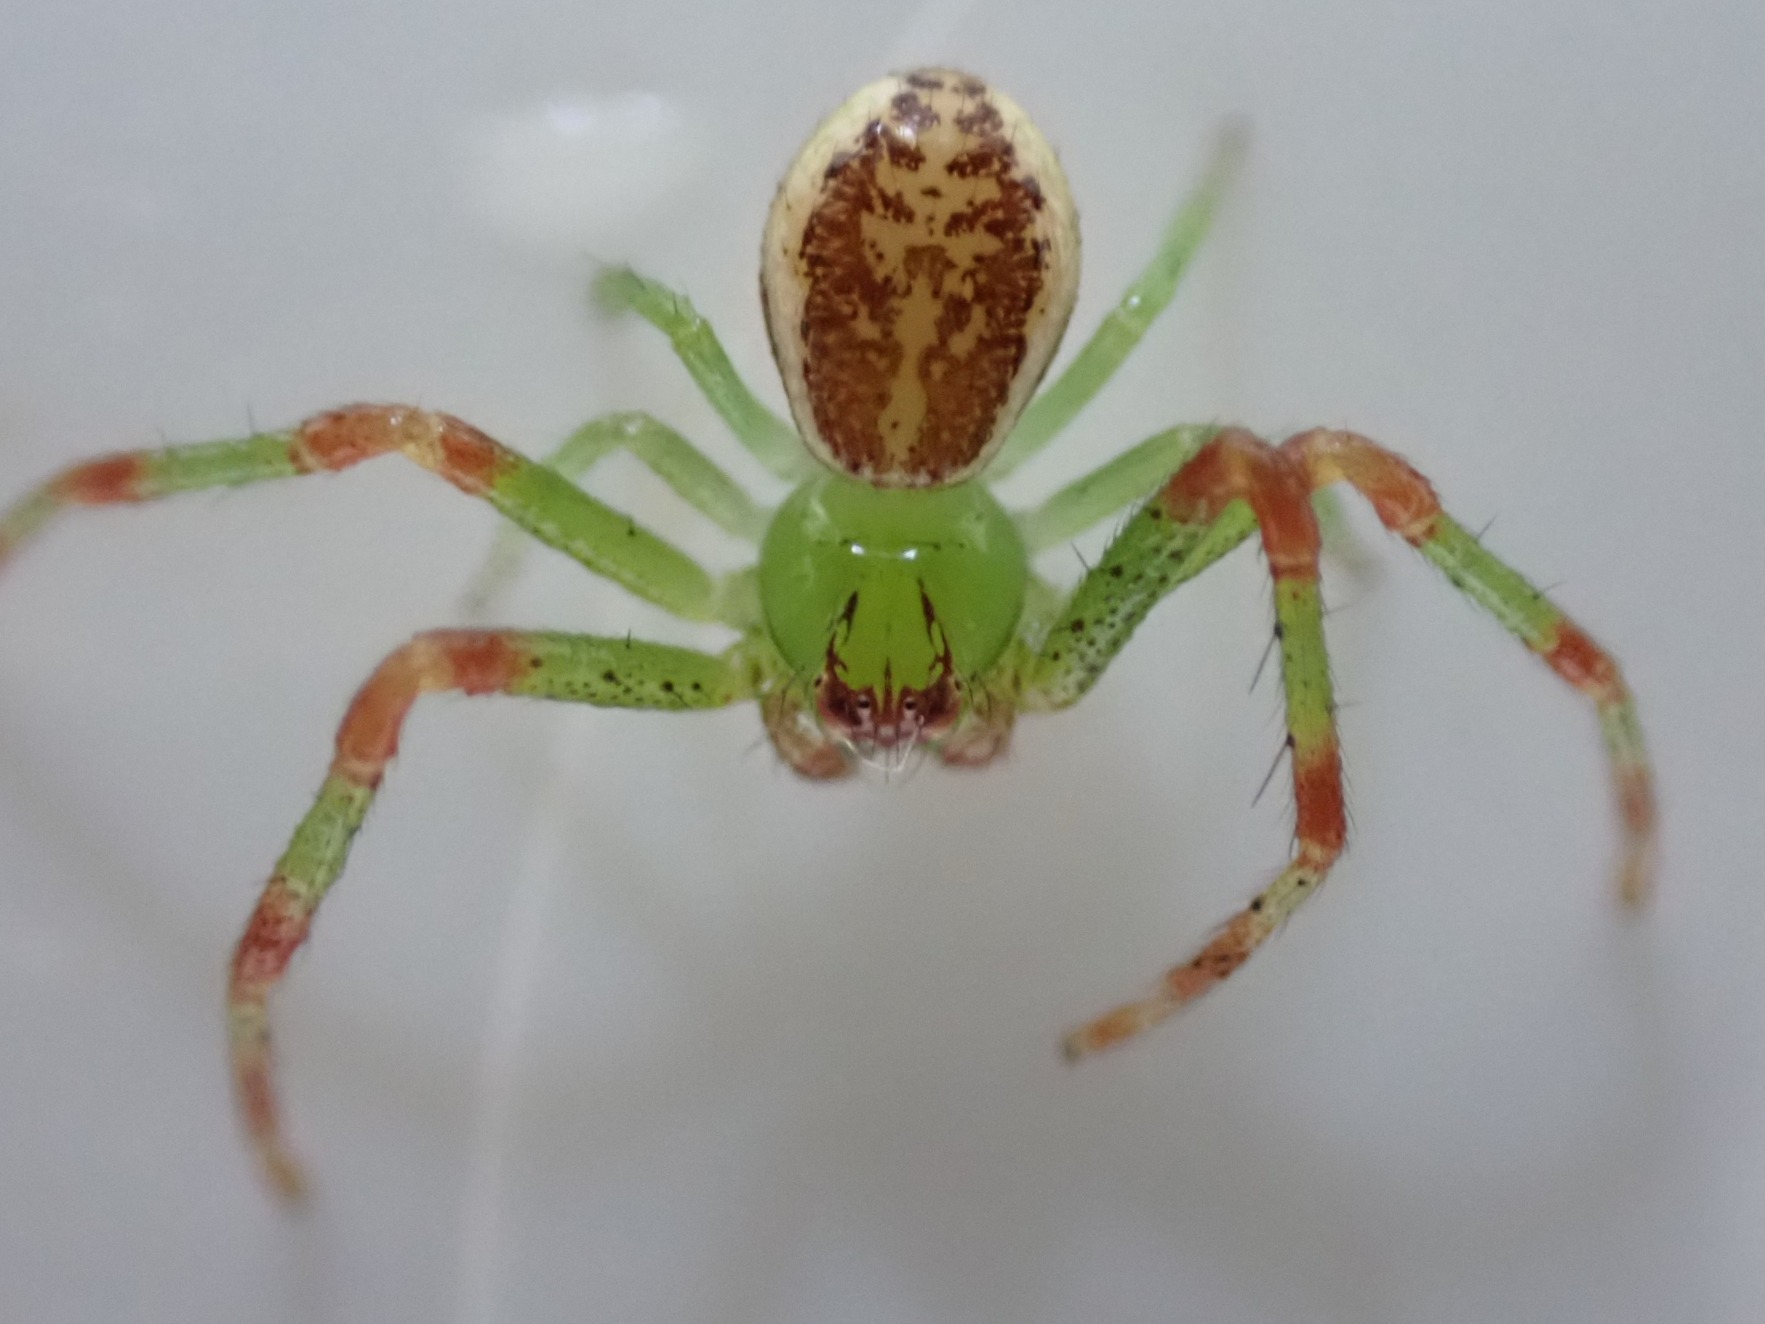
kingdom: Animalia
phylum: Arthropoda
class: Arachnida
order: Araneae
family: Thomisidae
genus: Diaea
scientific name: Diaea dorsata
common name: Grøn krabbeedderkop
